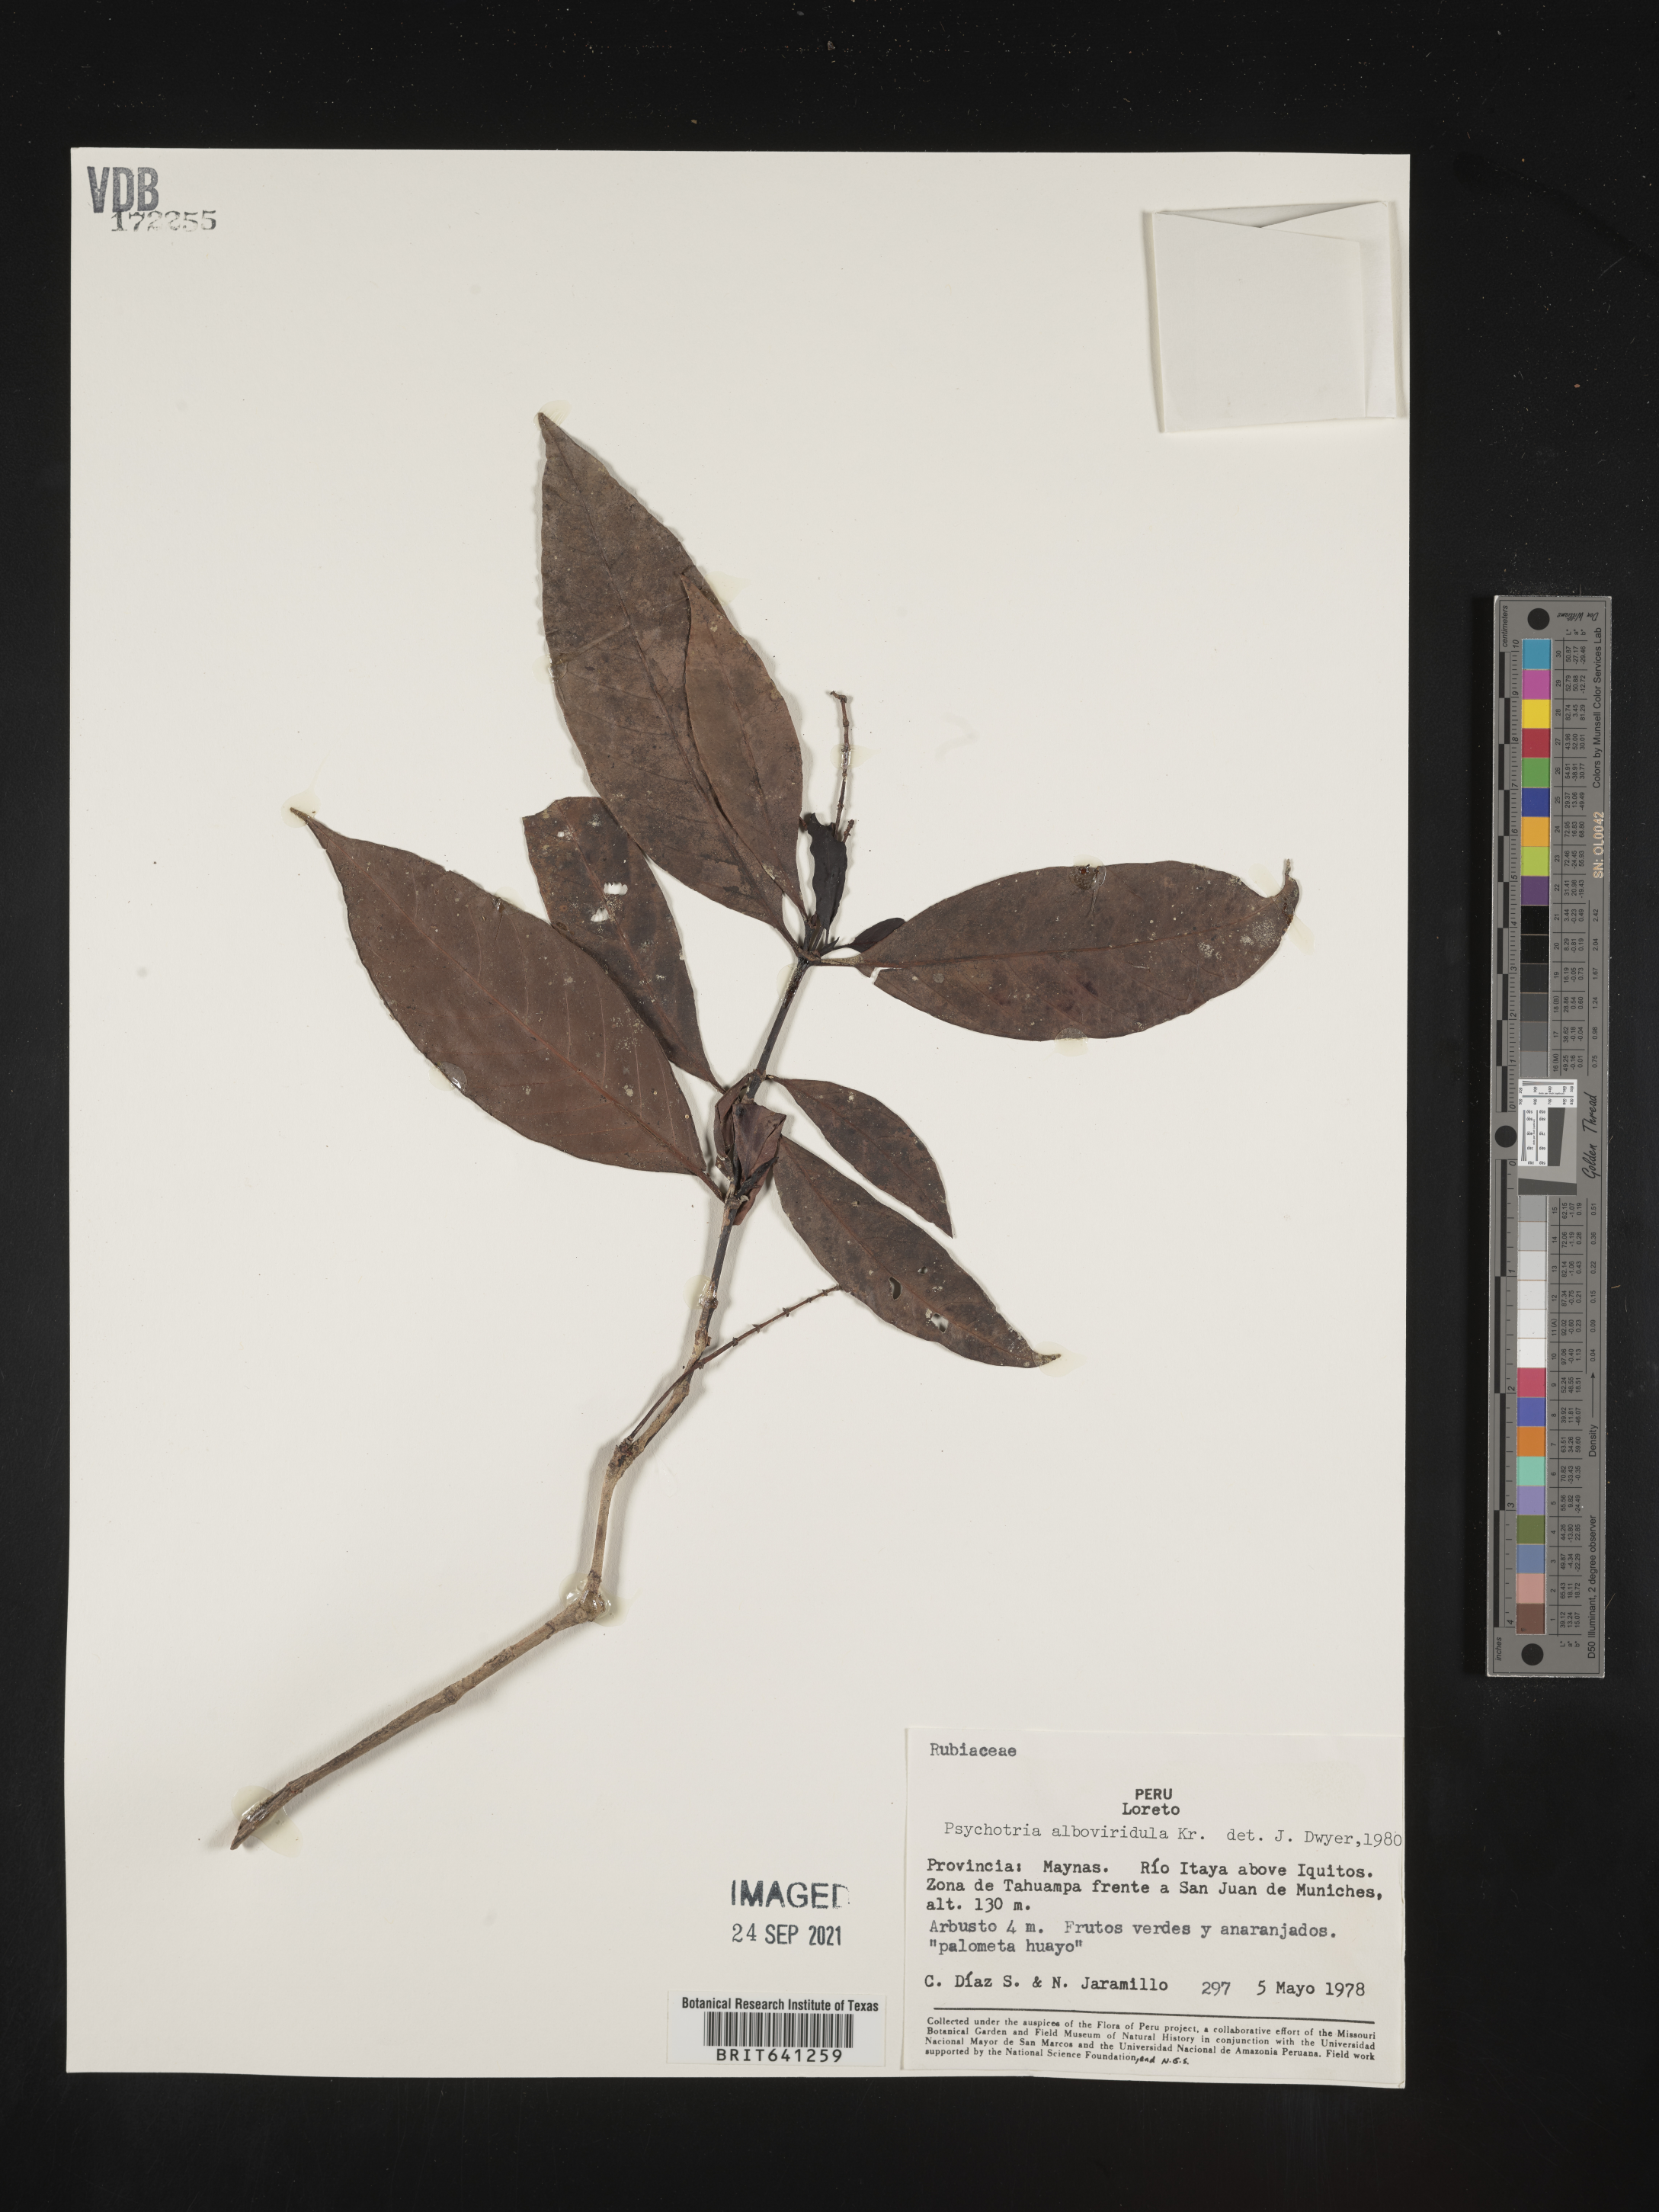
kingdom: Plantae
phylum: Tracheophyta
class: Magnoliopsida
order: Gentianales
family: Rubiaceae
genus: Psychotria
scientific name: Psychotria
